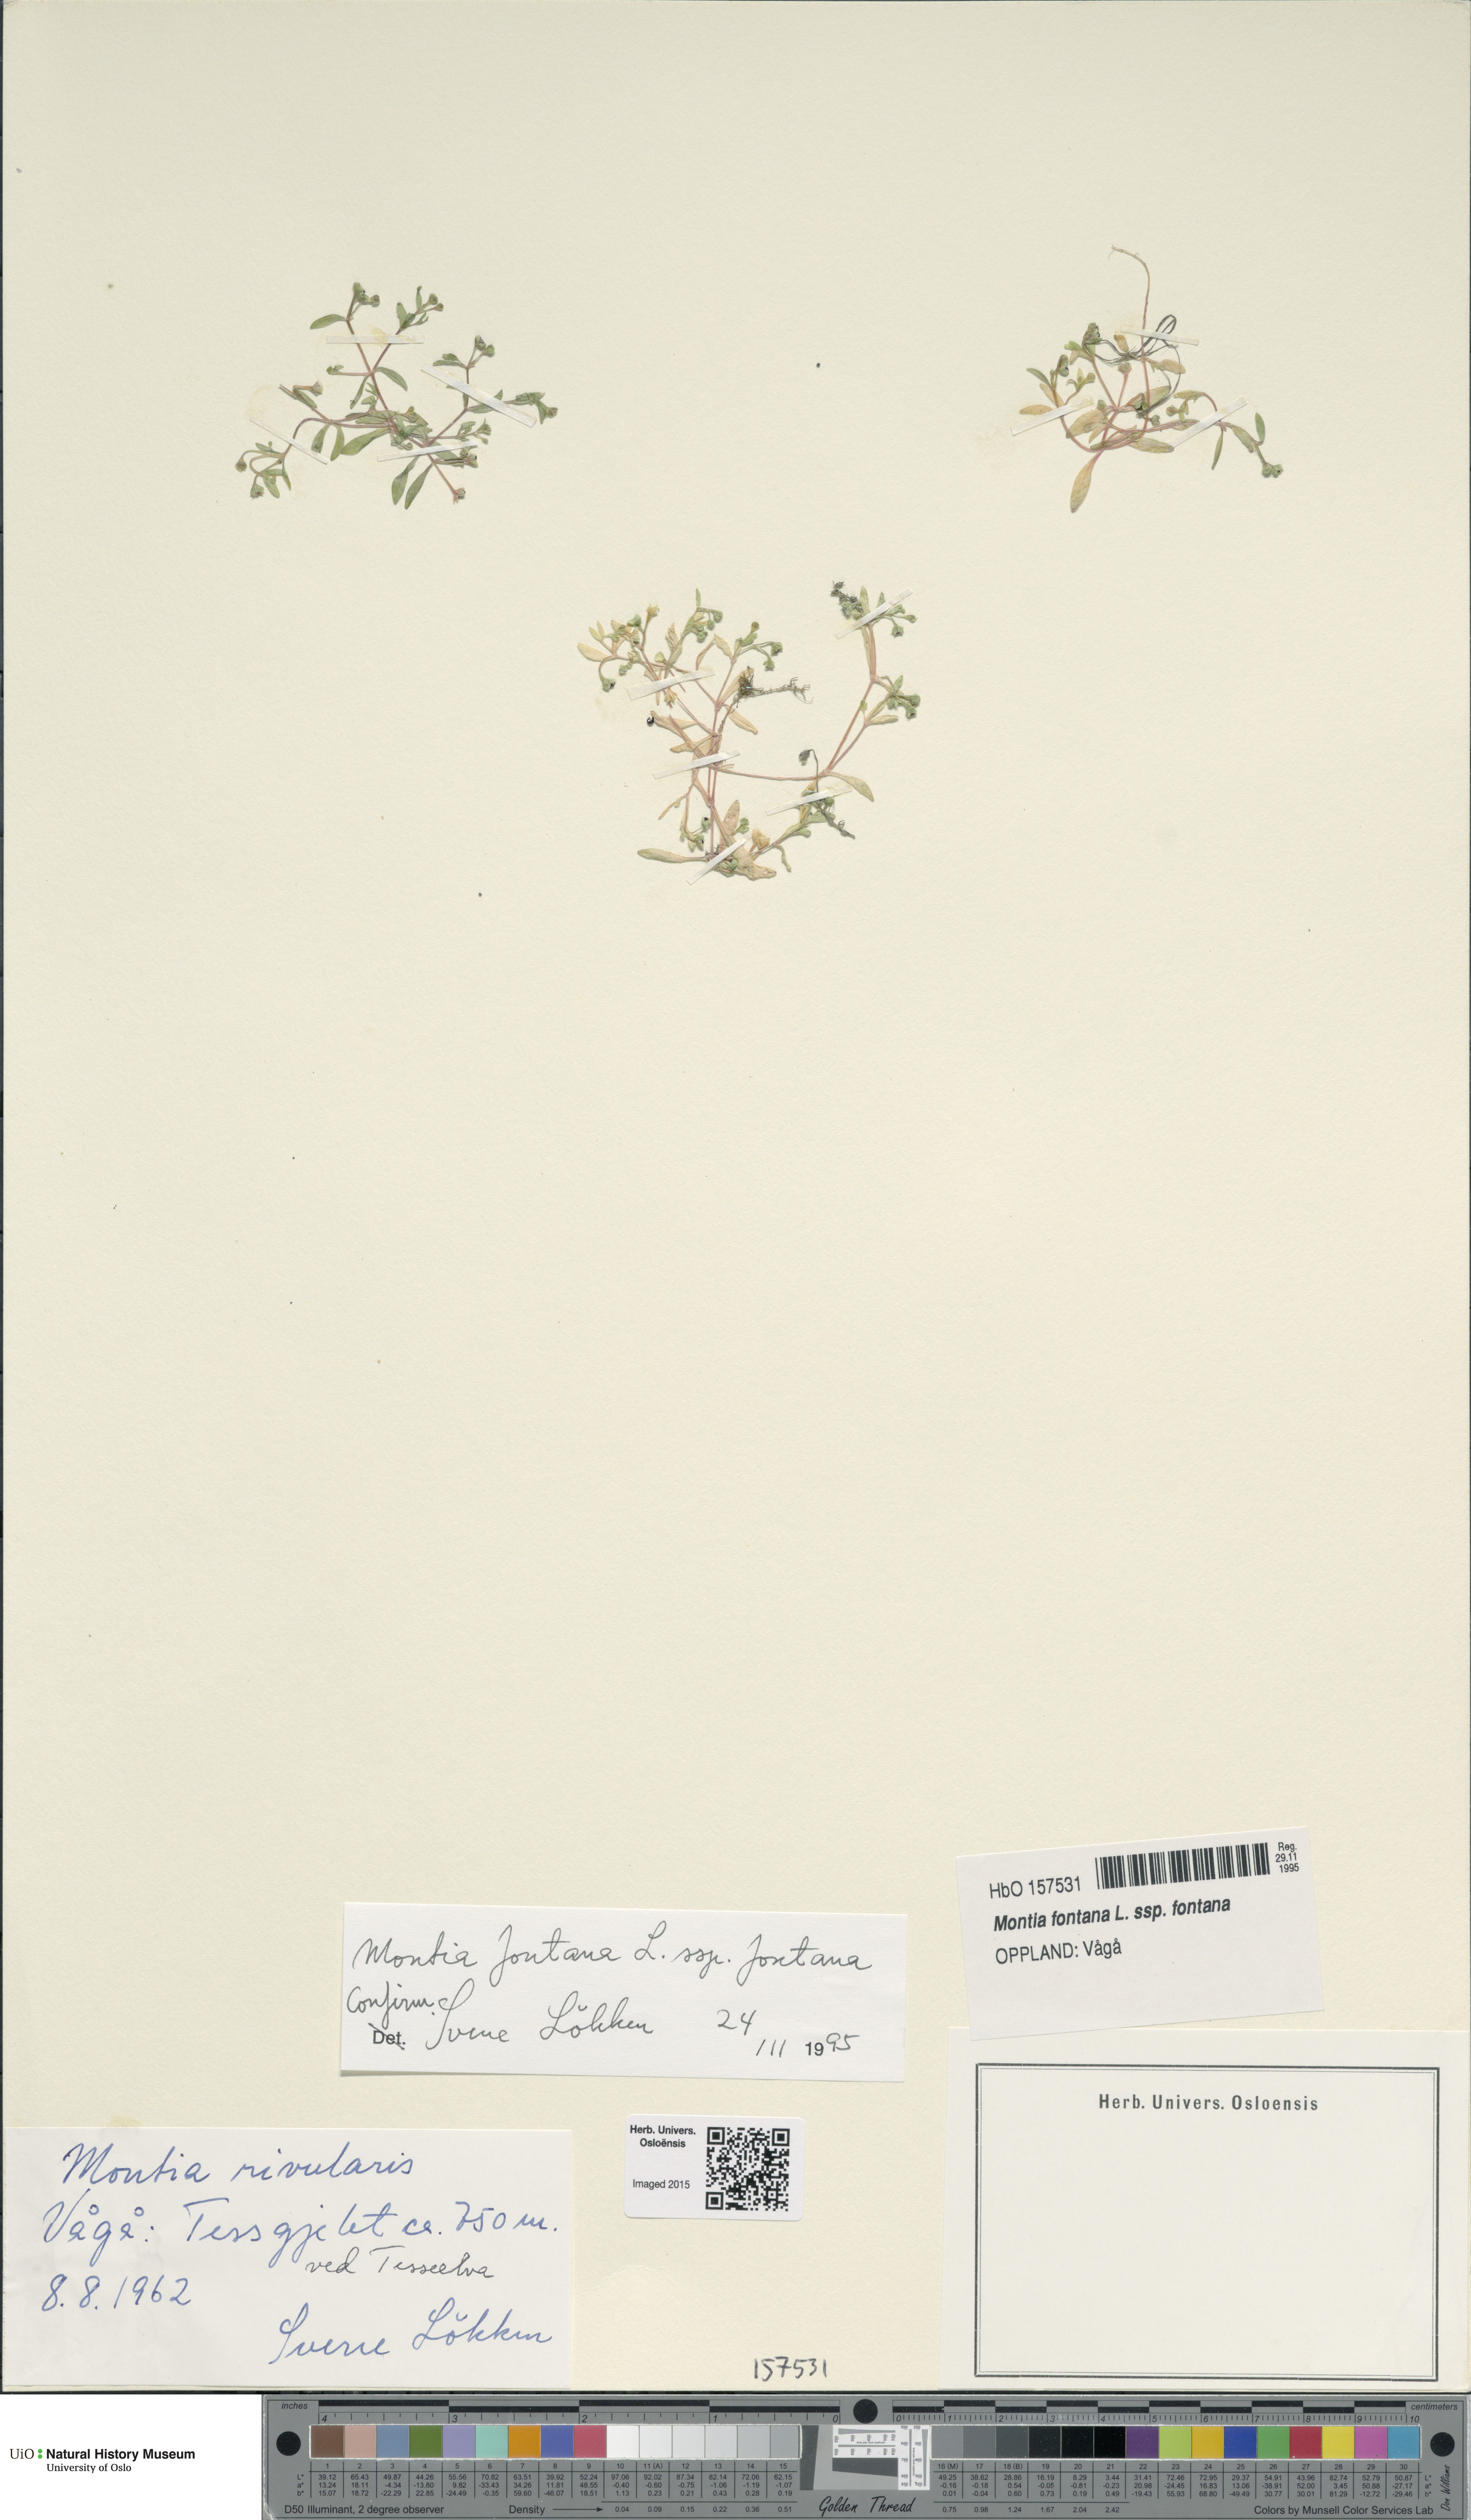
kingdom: Plantae
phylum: Tracheophyta
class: Magnoliopsida
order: Caryophyllales
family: Montiaceae
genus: Montia
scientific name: Montia fontana
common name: Blinks
